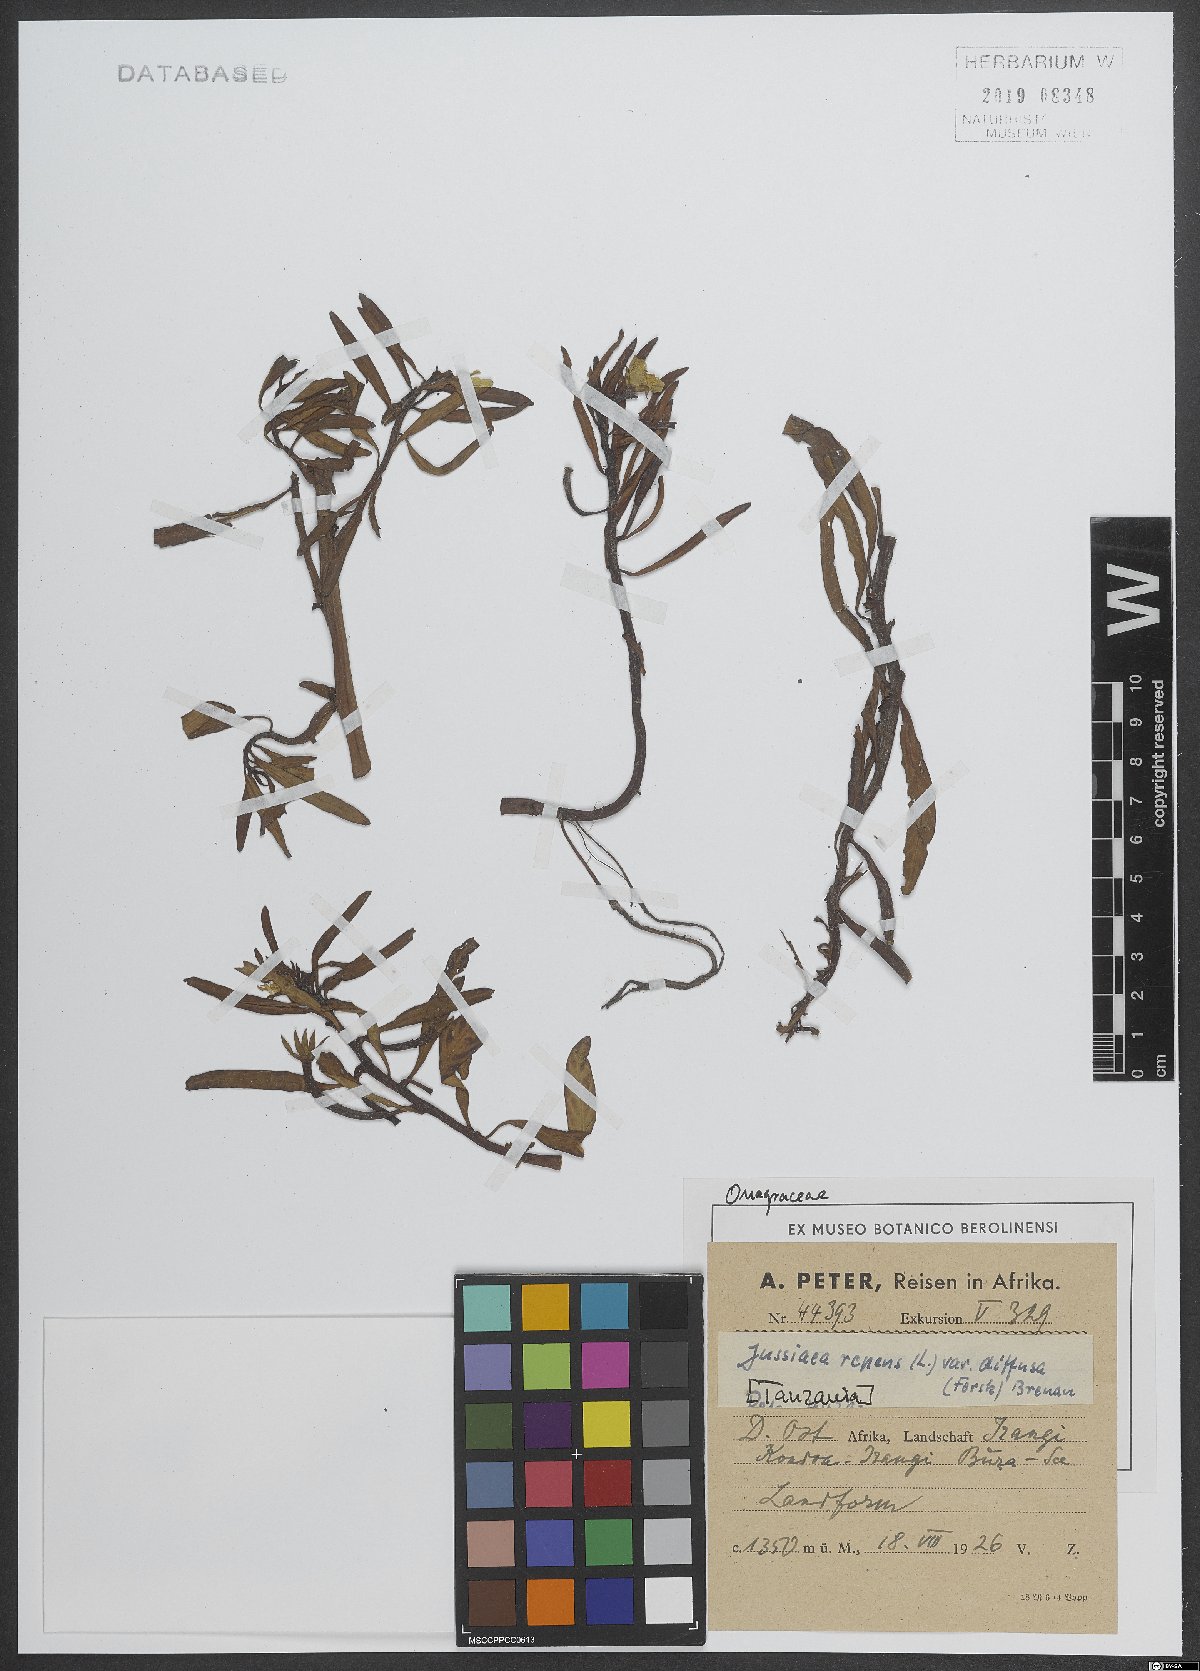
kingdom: Plantae
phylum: Tracheophyta
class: Magnoliopsida
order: Myrtales
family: Onagraceae
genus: Ludwigia
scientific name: Ludwigia adscendens
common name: Creeping water primrose
